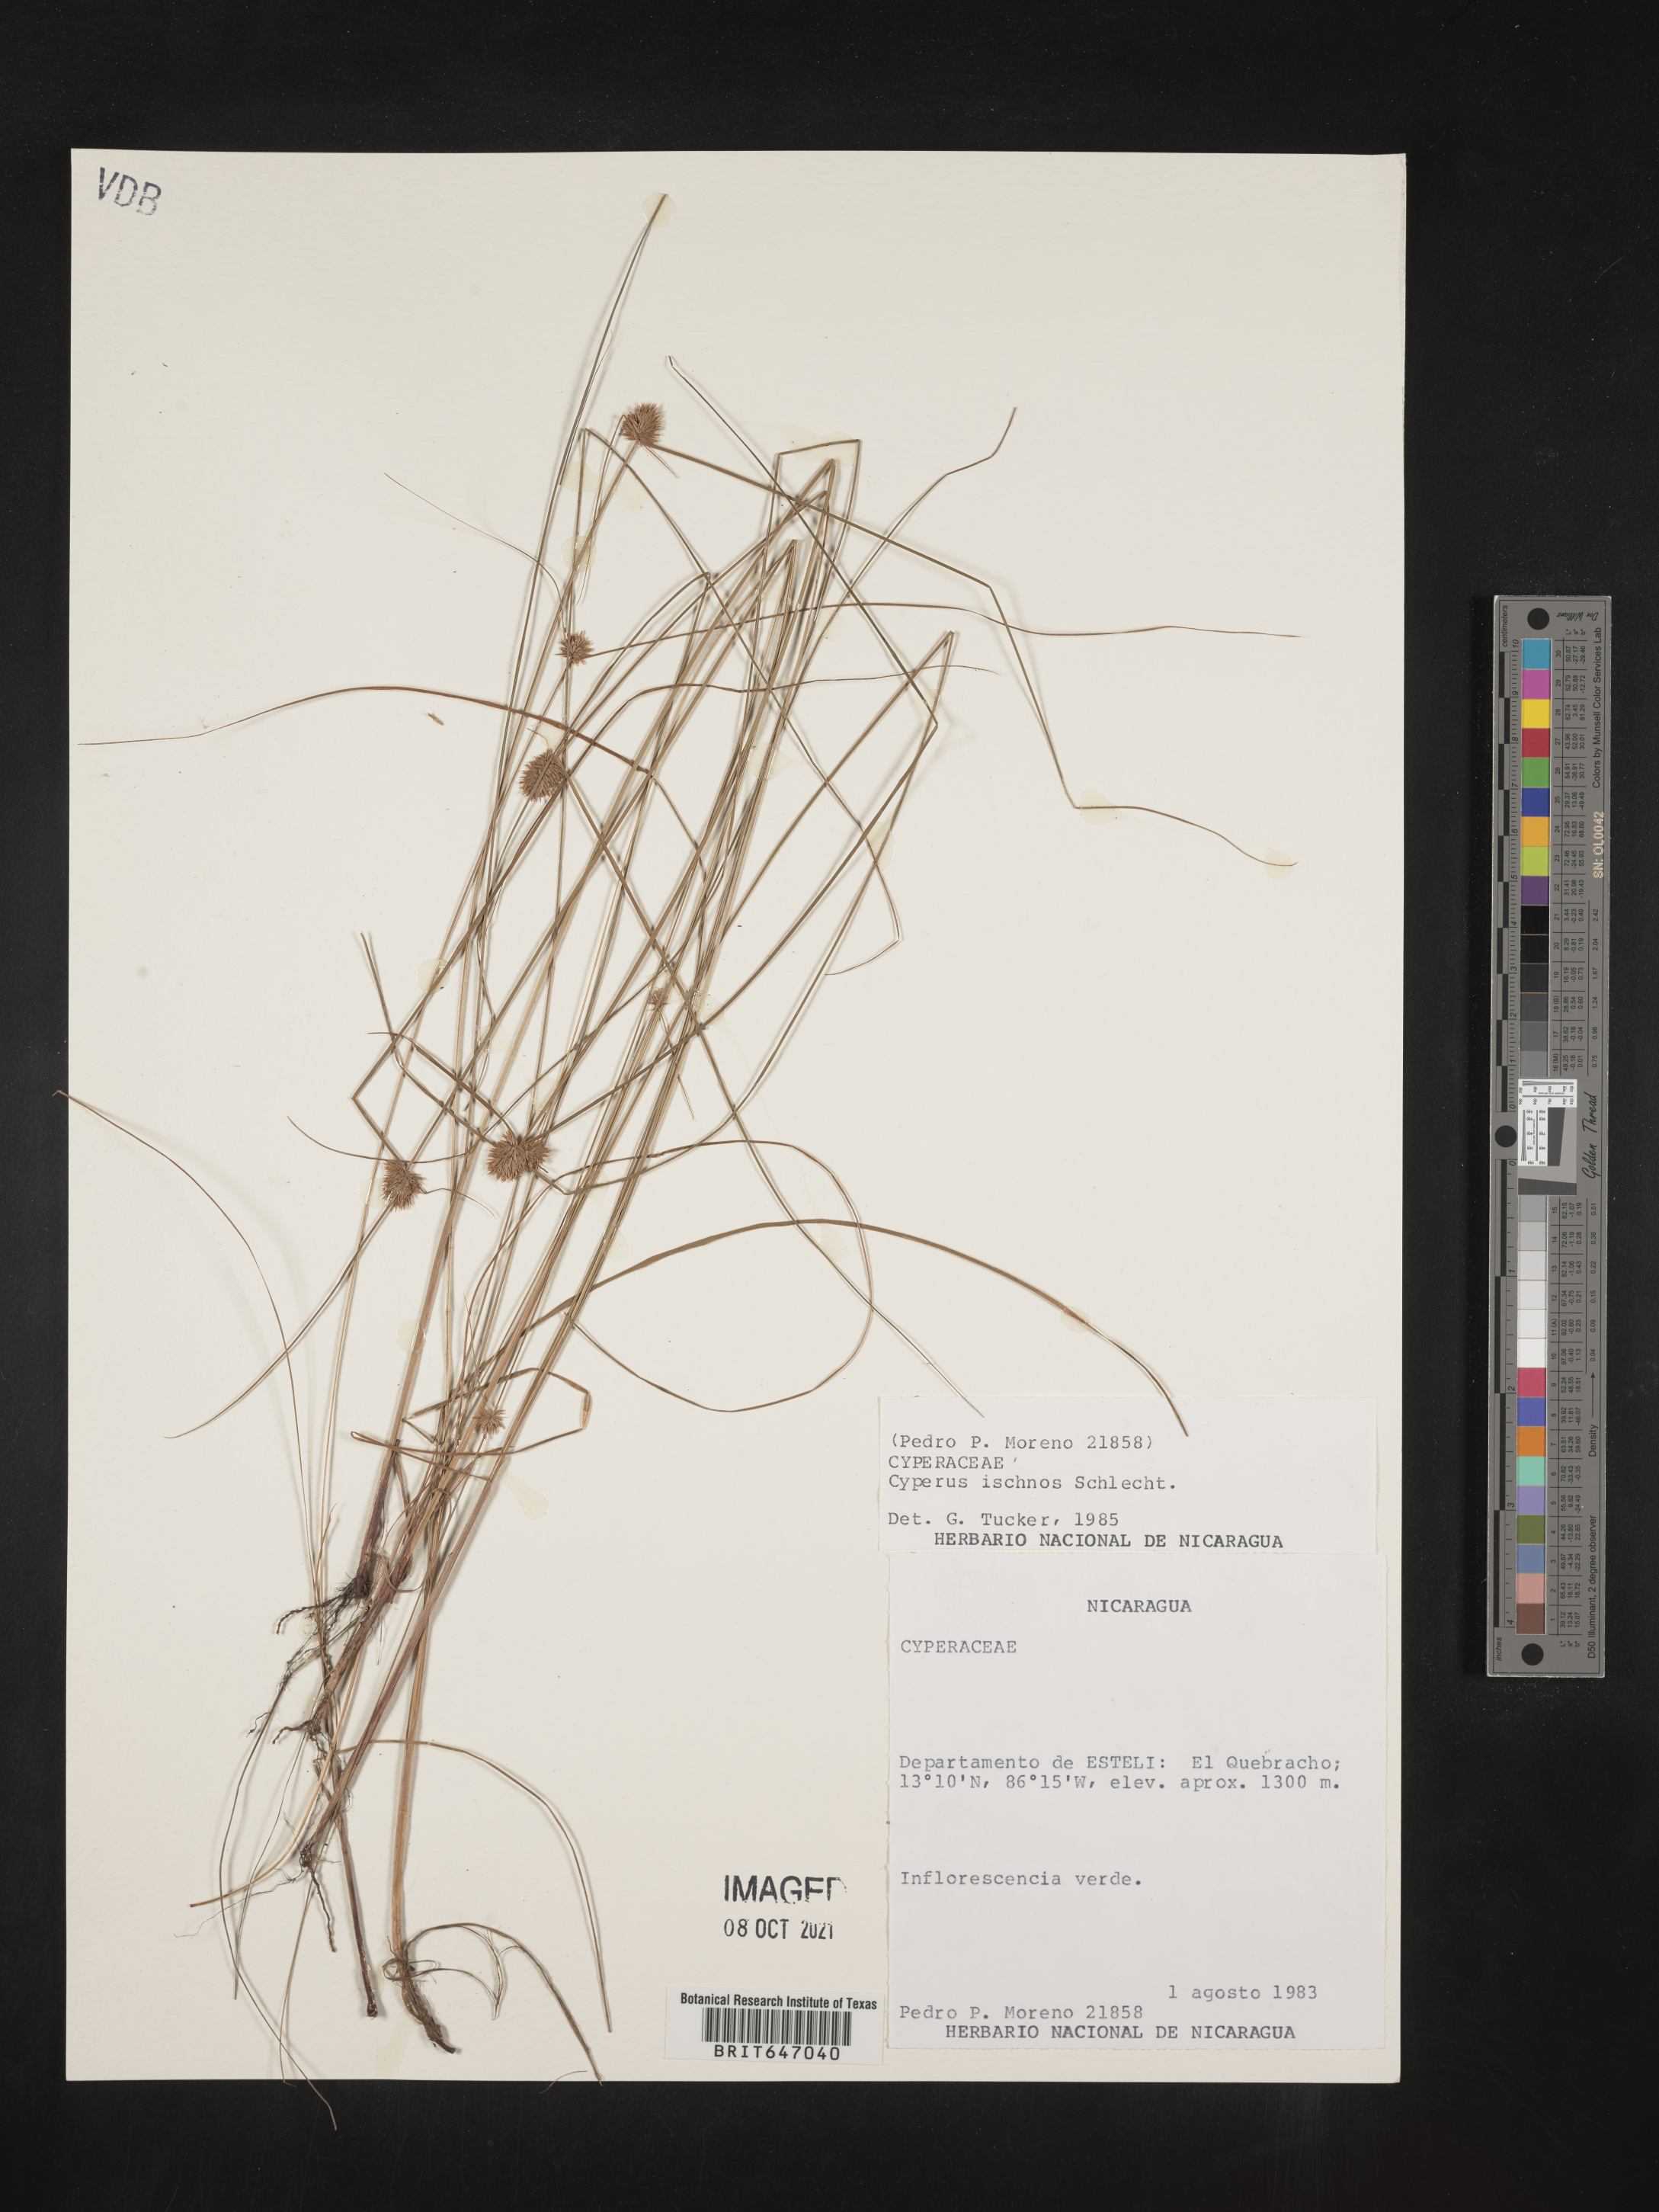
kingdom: Plantae
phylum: Tracheophyta
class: Liliopsida
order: Poales
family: Cyperaceae
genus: Cyperus
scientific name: Cyperus ischnos
